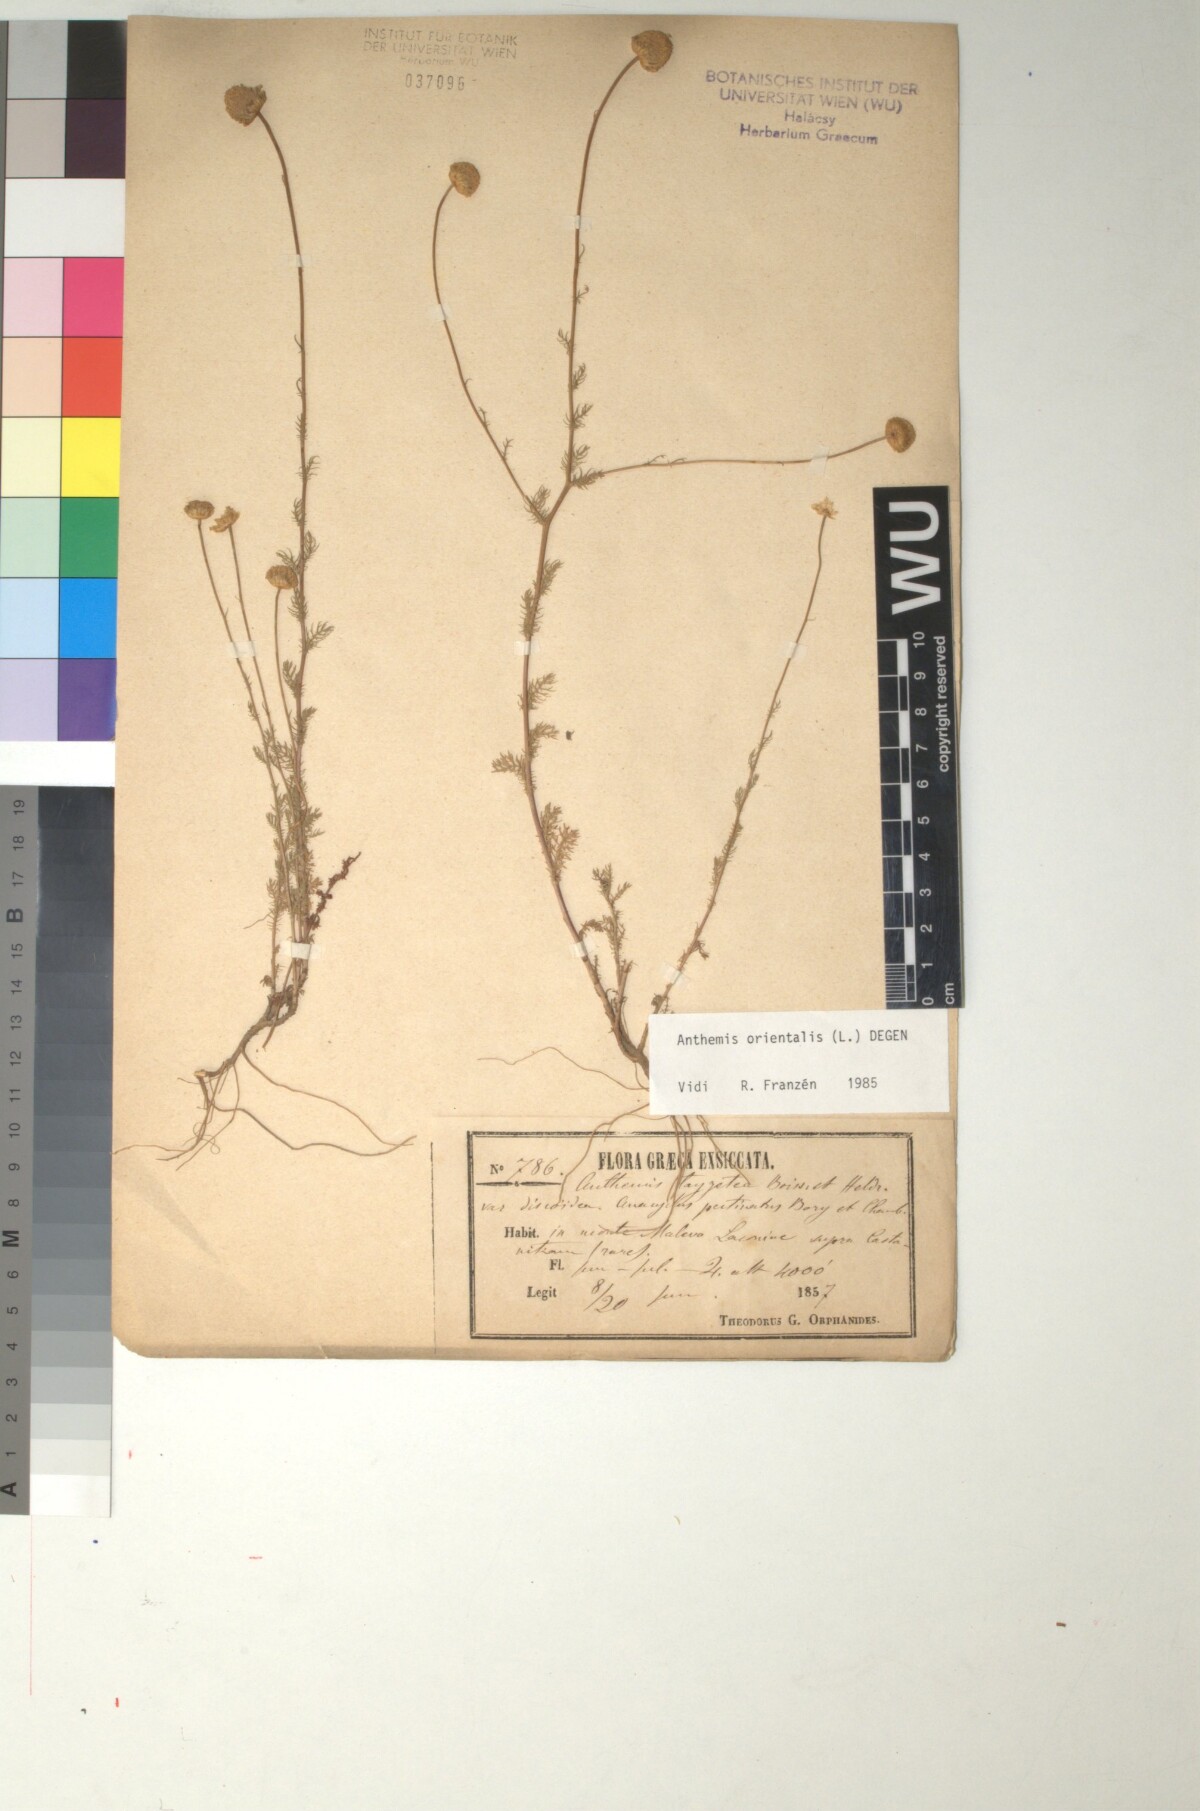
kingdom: Plantae
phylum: Tracheophyta
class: Magnoliopsida
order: Asterales
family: Asteraceae
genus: Anthemis
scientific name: Anthemis orientalis
